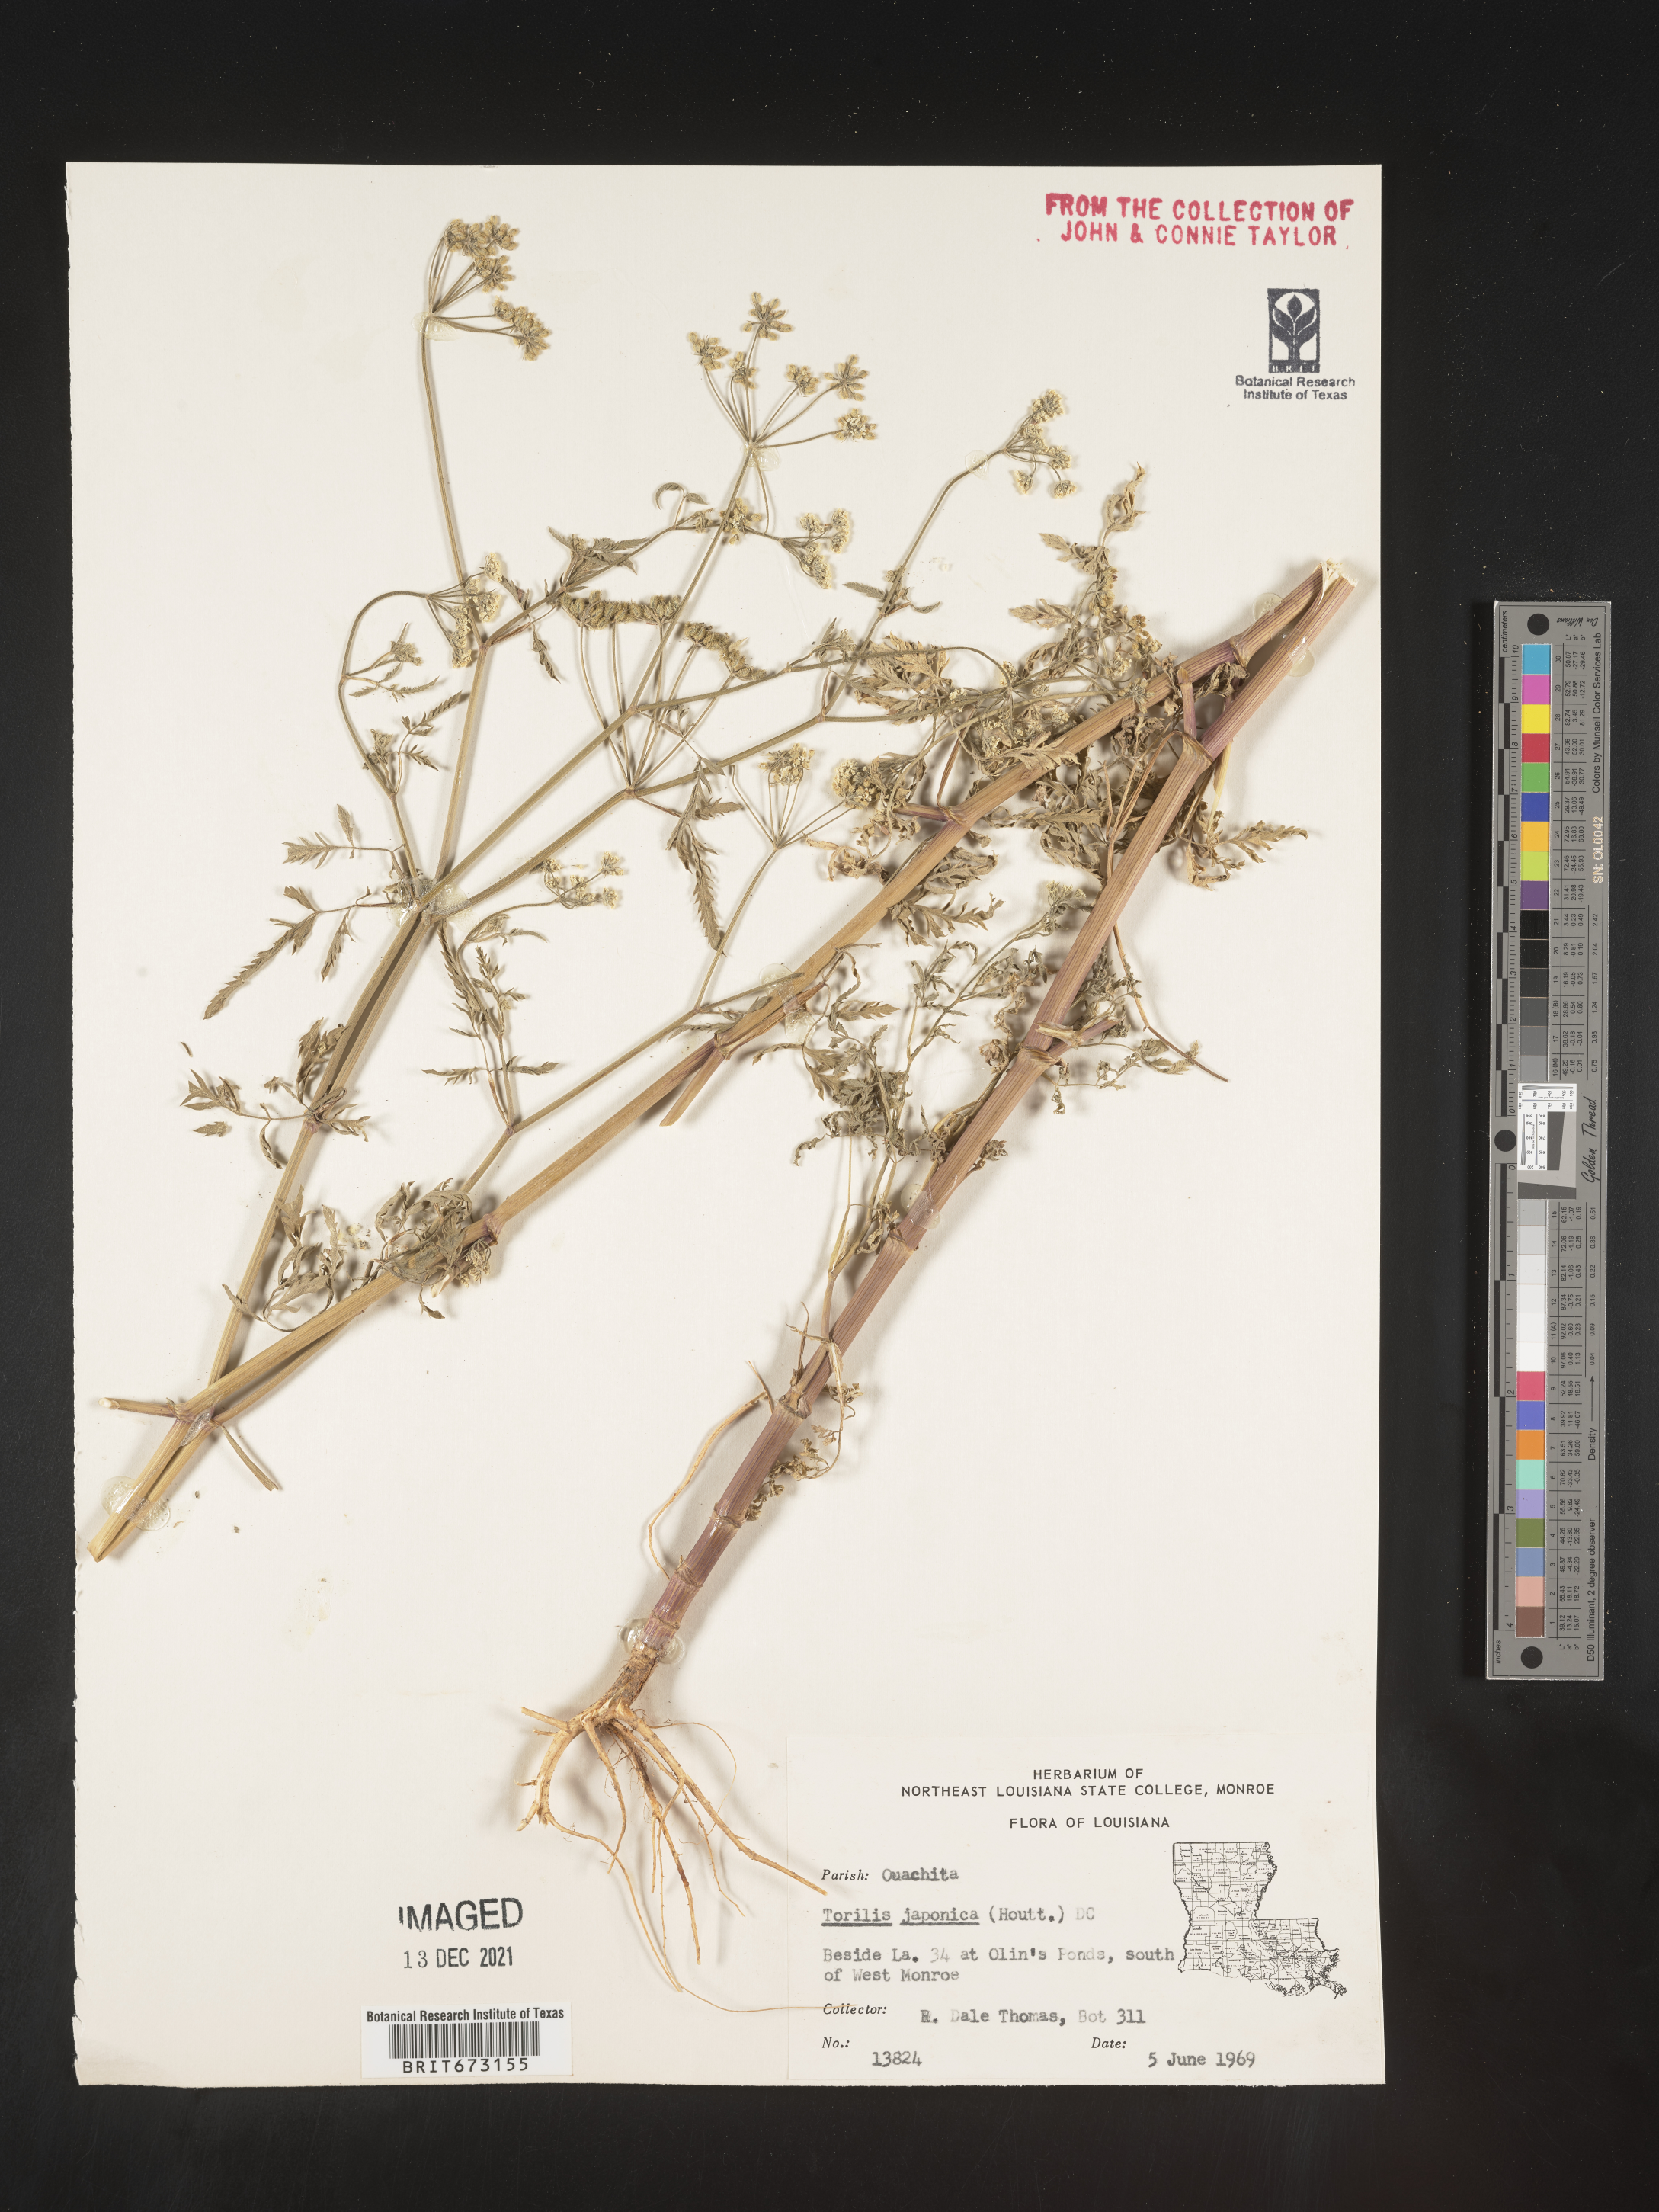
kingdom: Plantae
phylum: Tracheophyta
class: Magnoliopsida
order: Apiales
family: Apiaceae
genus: Torilis
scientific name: Torilis arvensis
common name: Spreading hedge-parsley
